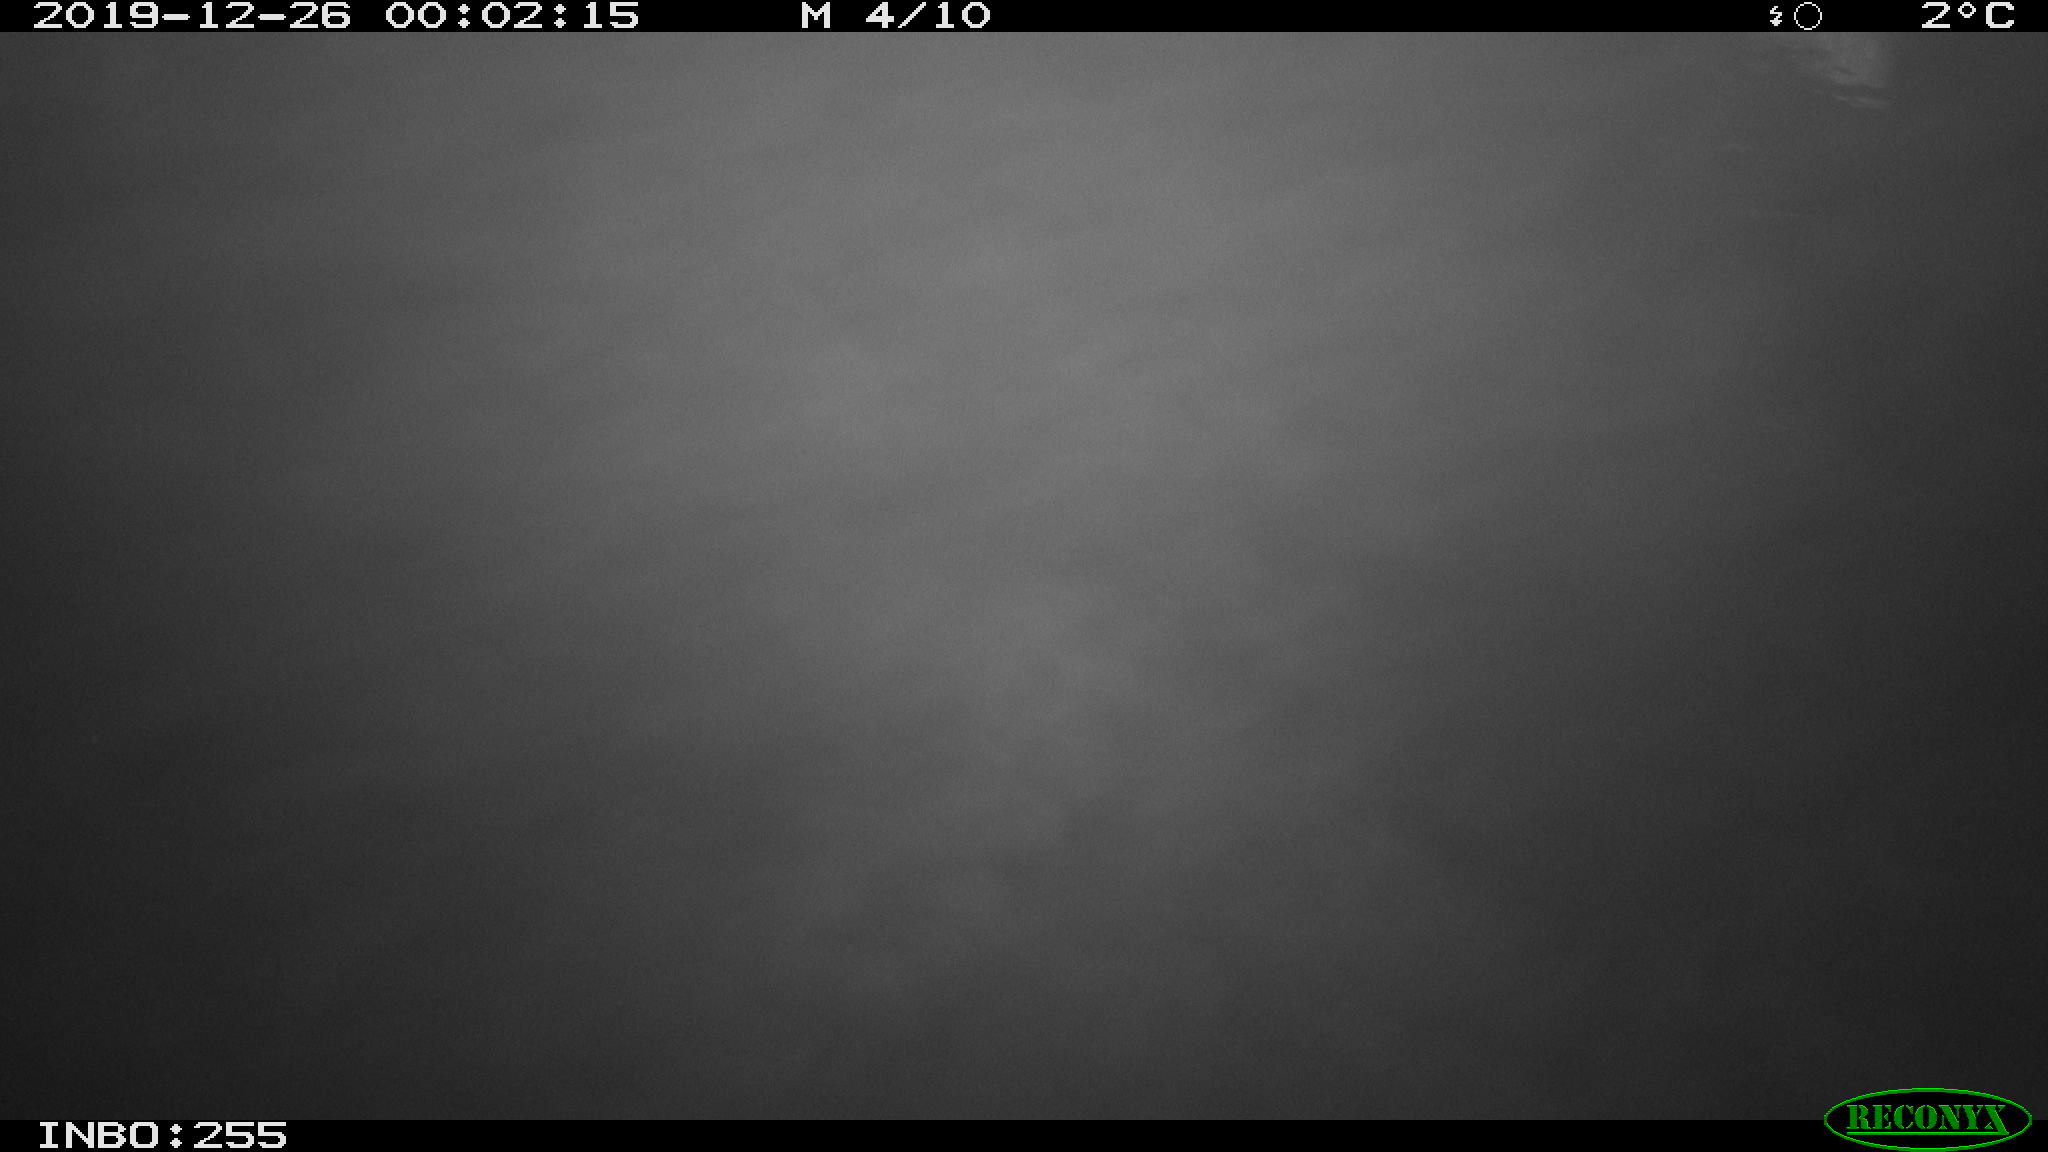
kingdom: Animalia
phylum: Chordata
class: Aves
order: Anseriformes
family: Anatidae
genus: Anas
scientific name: Anas platyrhynchos
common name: Mallard
